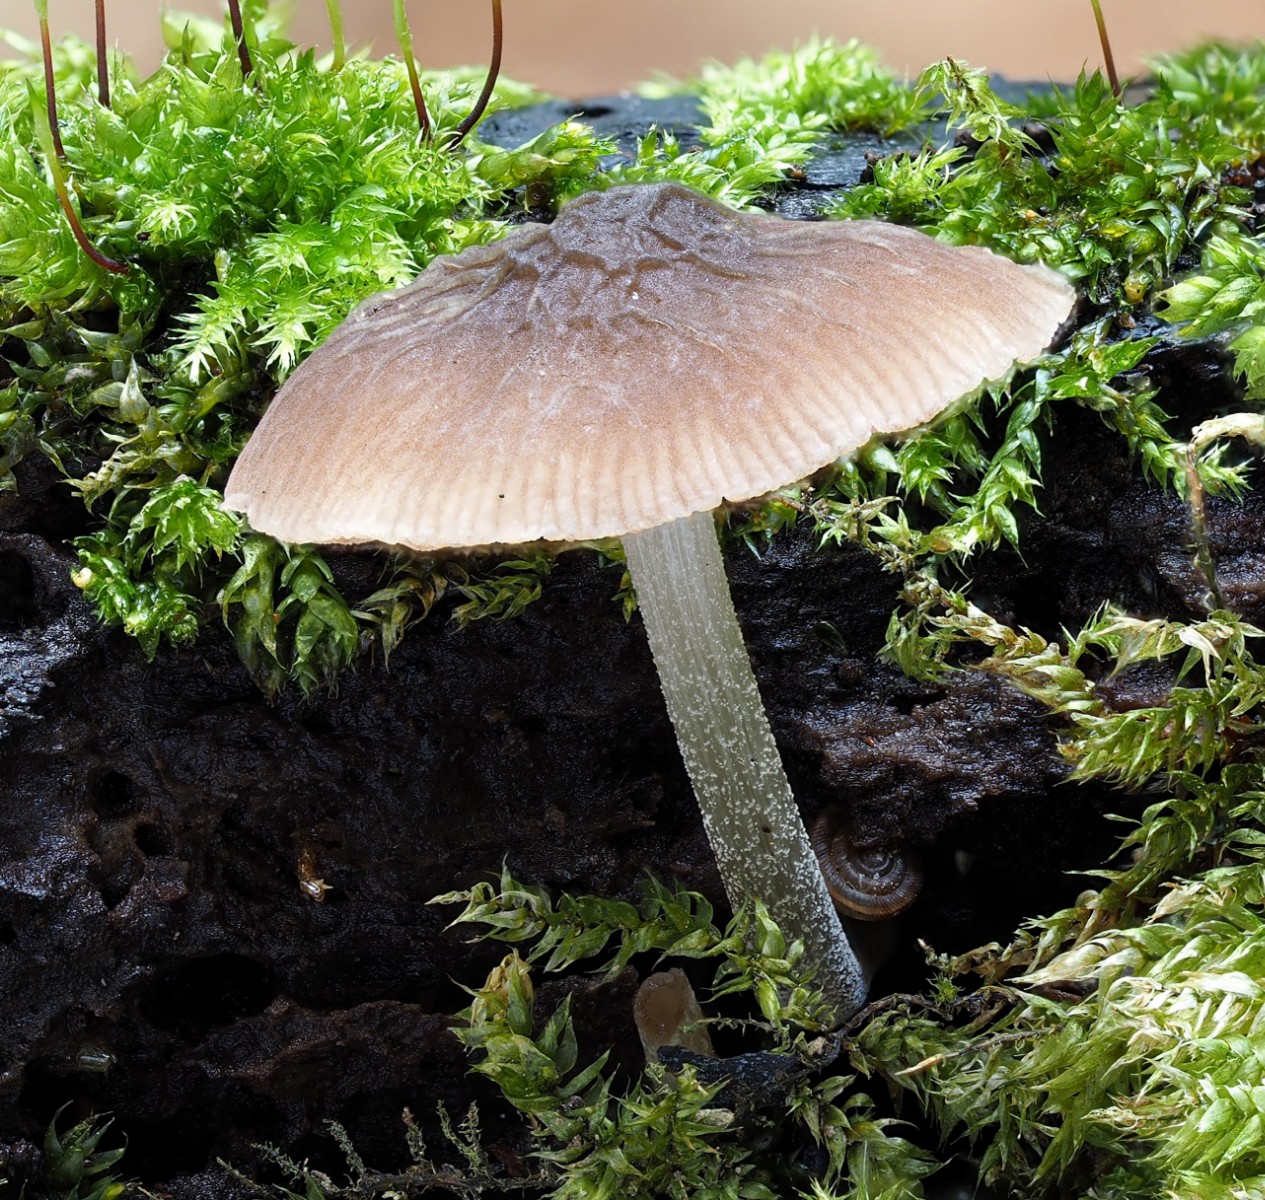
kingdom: Fungi
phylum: Basidiomycota
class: Agaricomycetes
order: Agaricales
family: Pluteaceae
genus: Pluteus
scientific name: Pluteus
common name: gråstokket skærmhat
